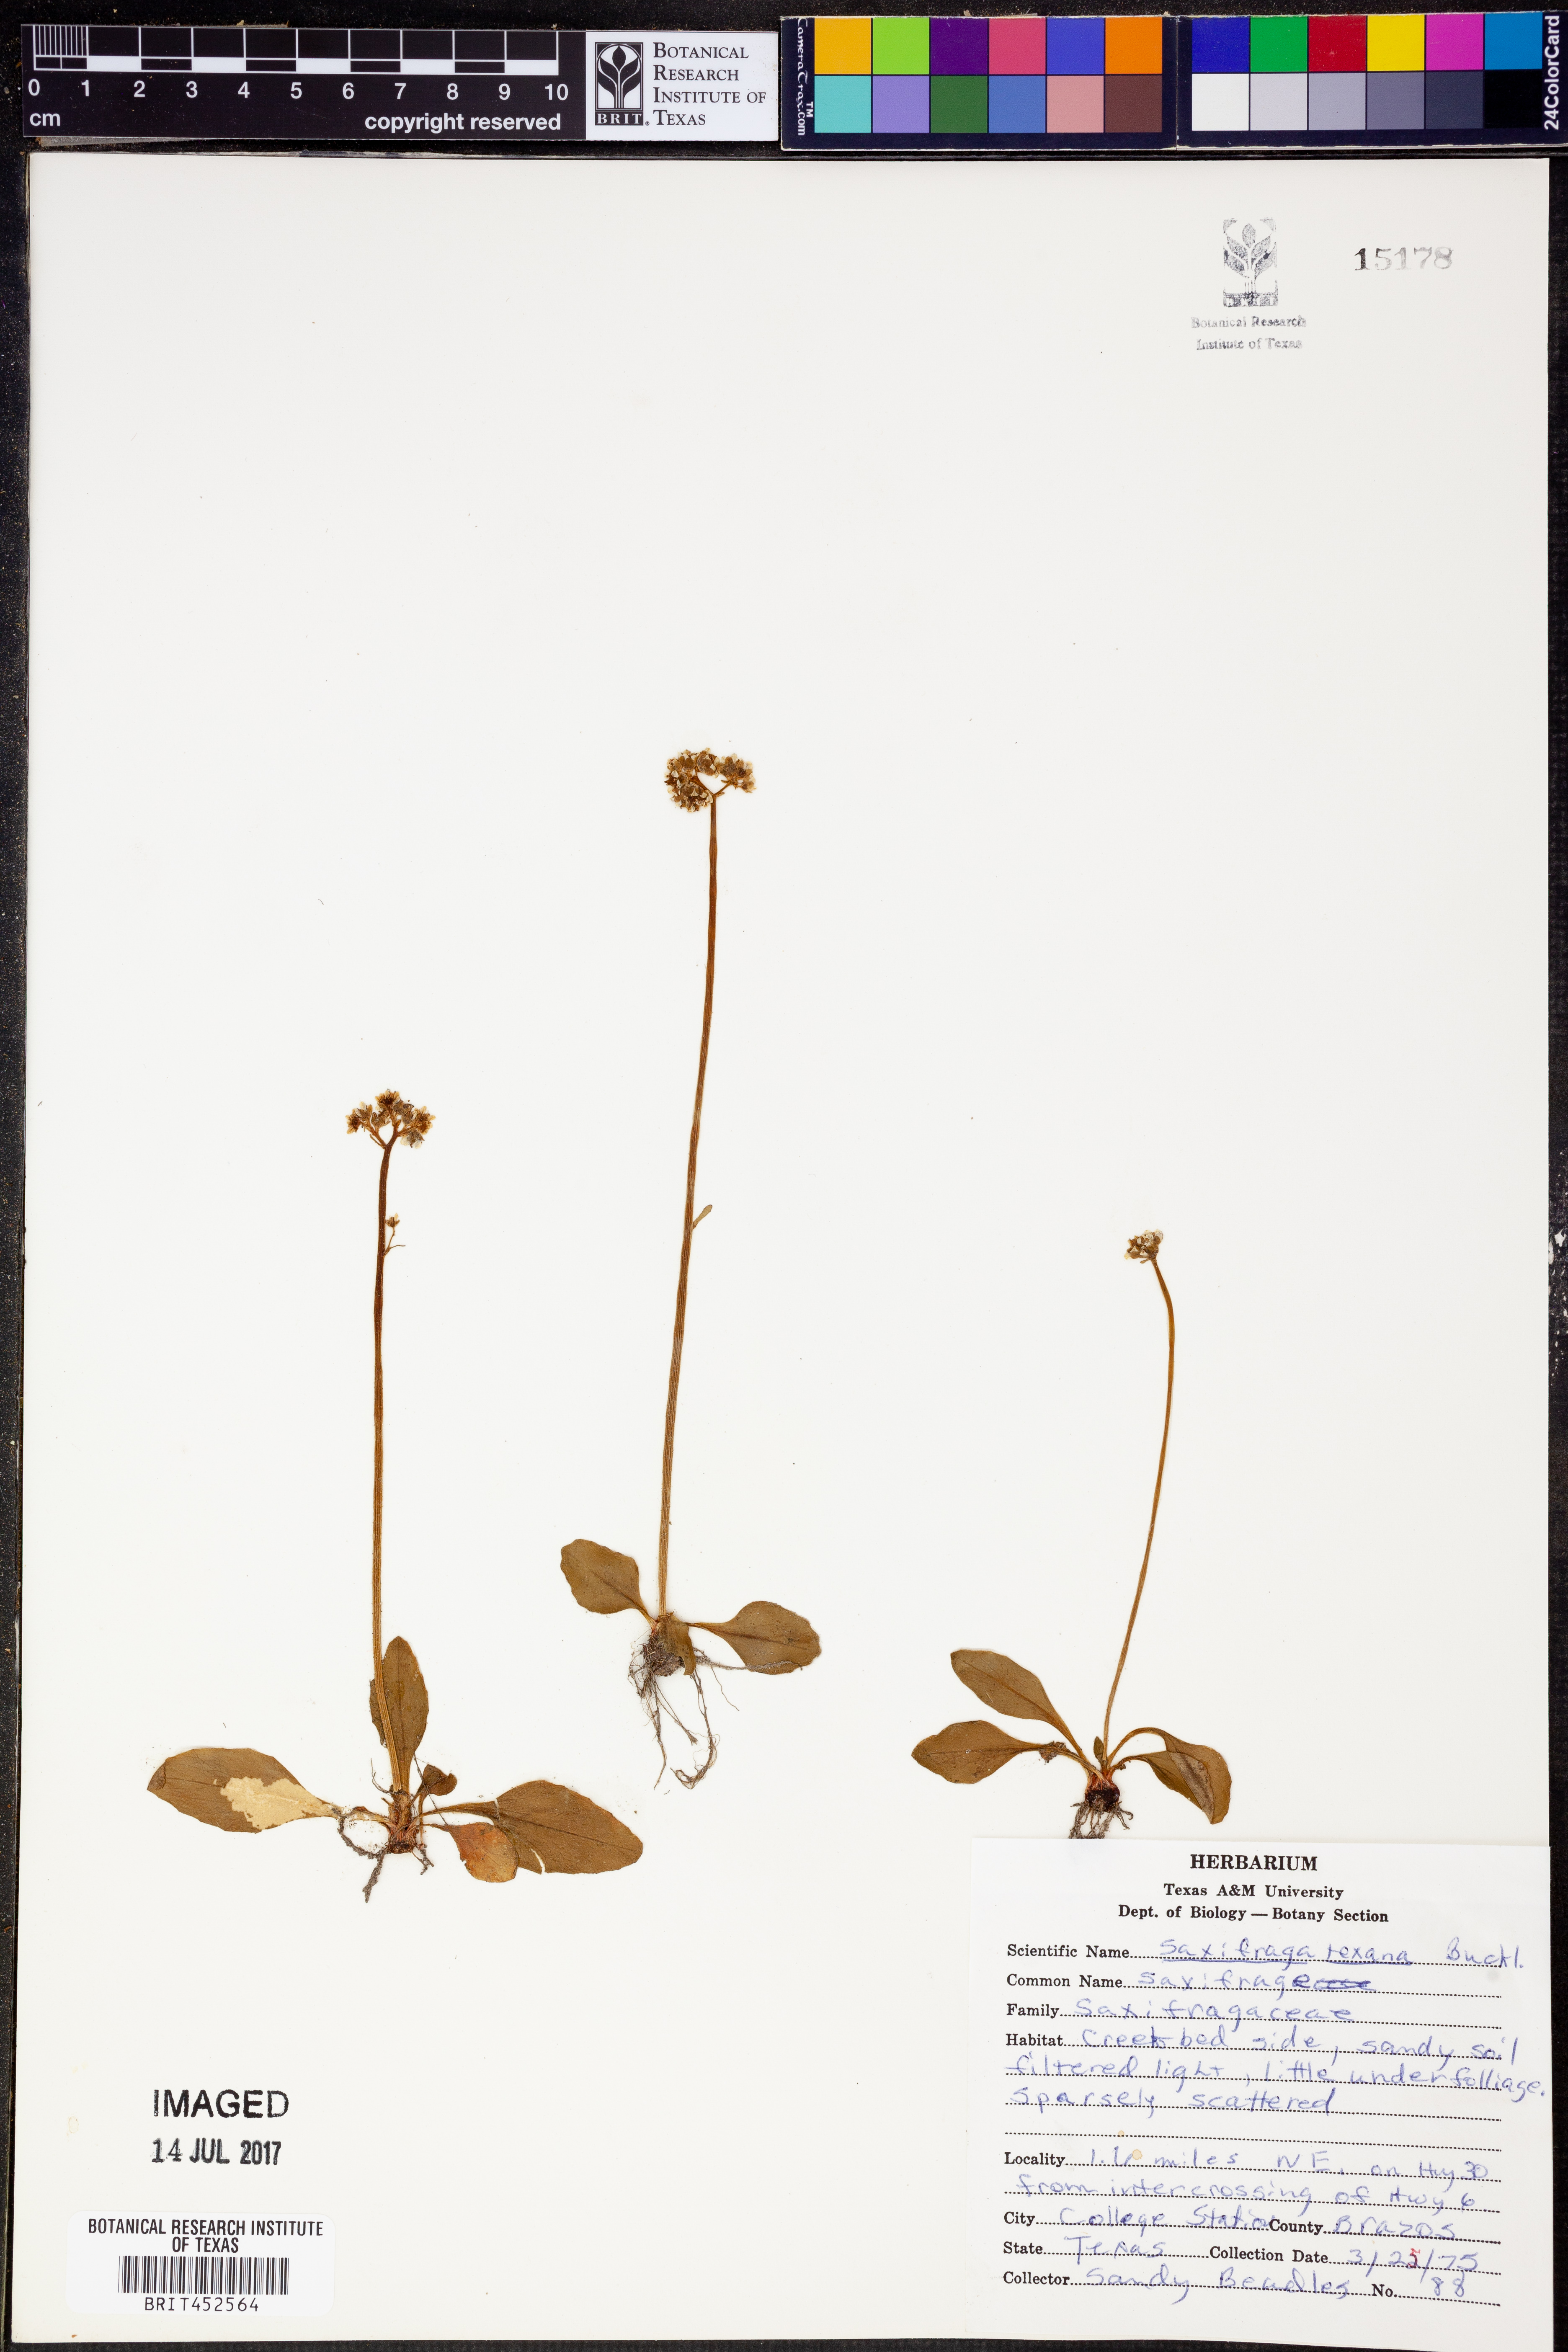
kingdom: Plantae
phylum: Tracheophyta
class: Magnoliopsida
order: Saxifragales
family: Saxifragaceae
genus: Micranthes
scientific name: Micranthes texana
